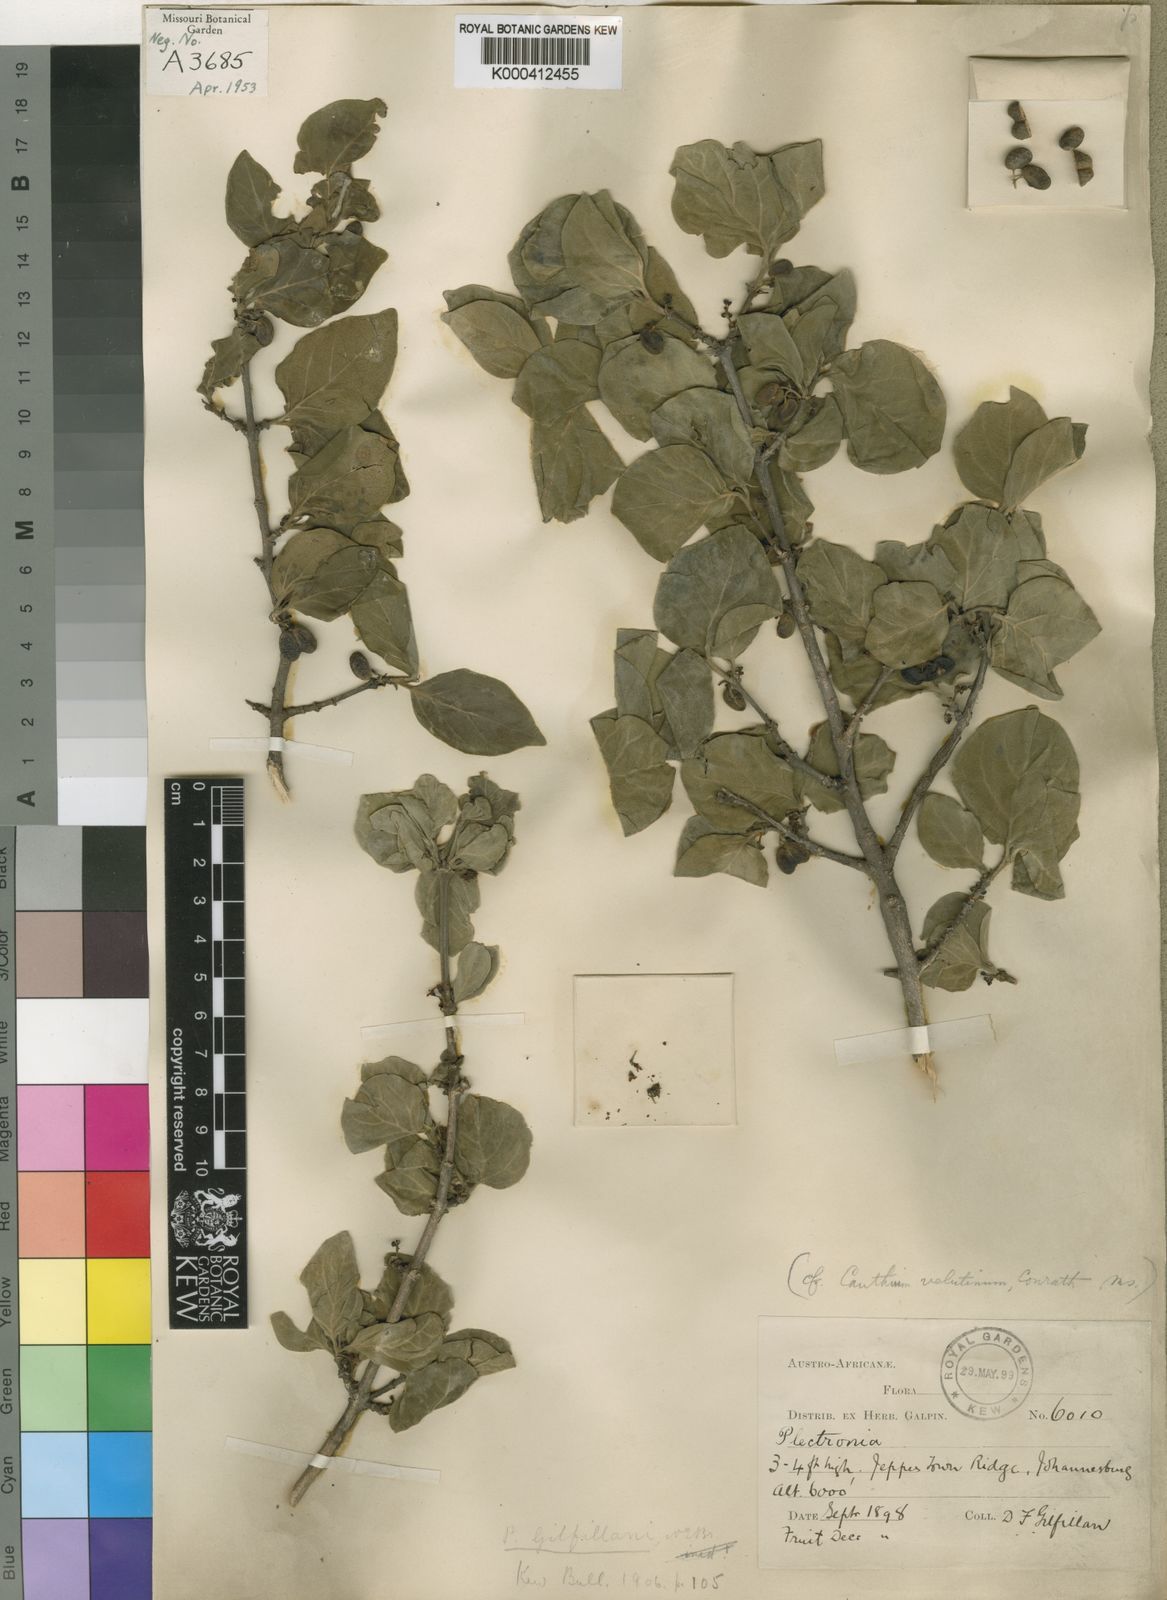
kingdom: Plantae
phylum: Tracheophyta
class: Magnoliopsida
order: Gentianales
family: Rubiaceae
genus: Afrocanthium
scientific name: Afrocanthium gilfillanii
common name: Velvet rock-alder
